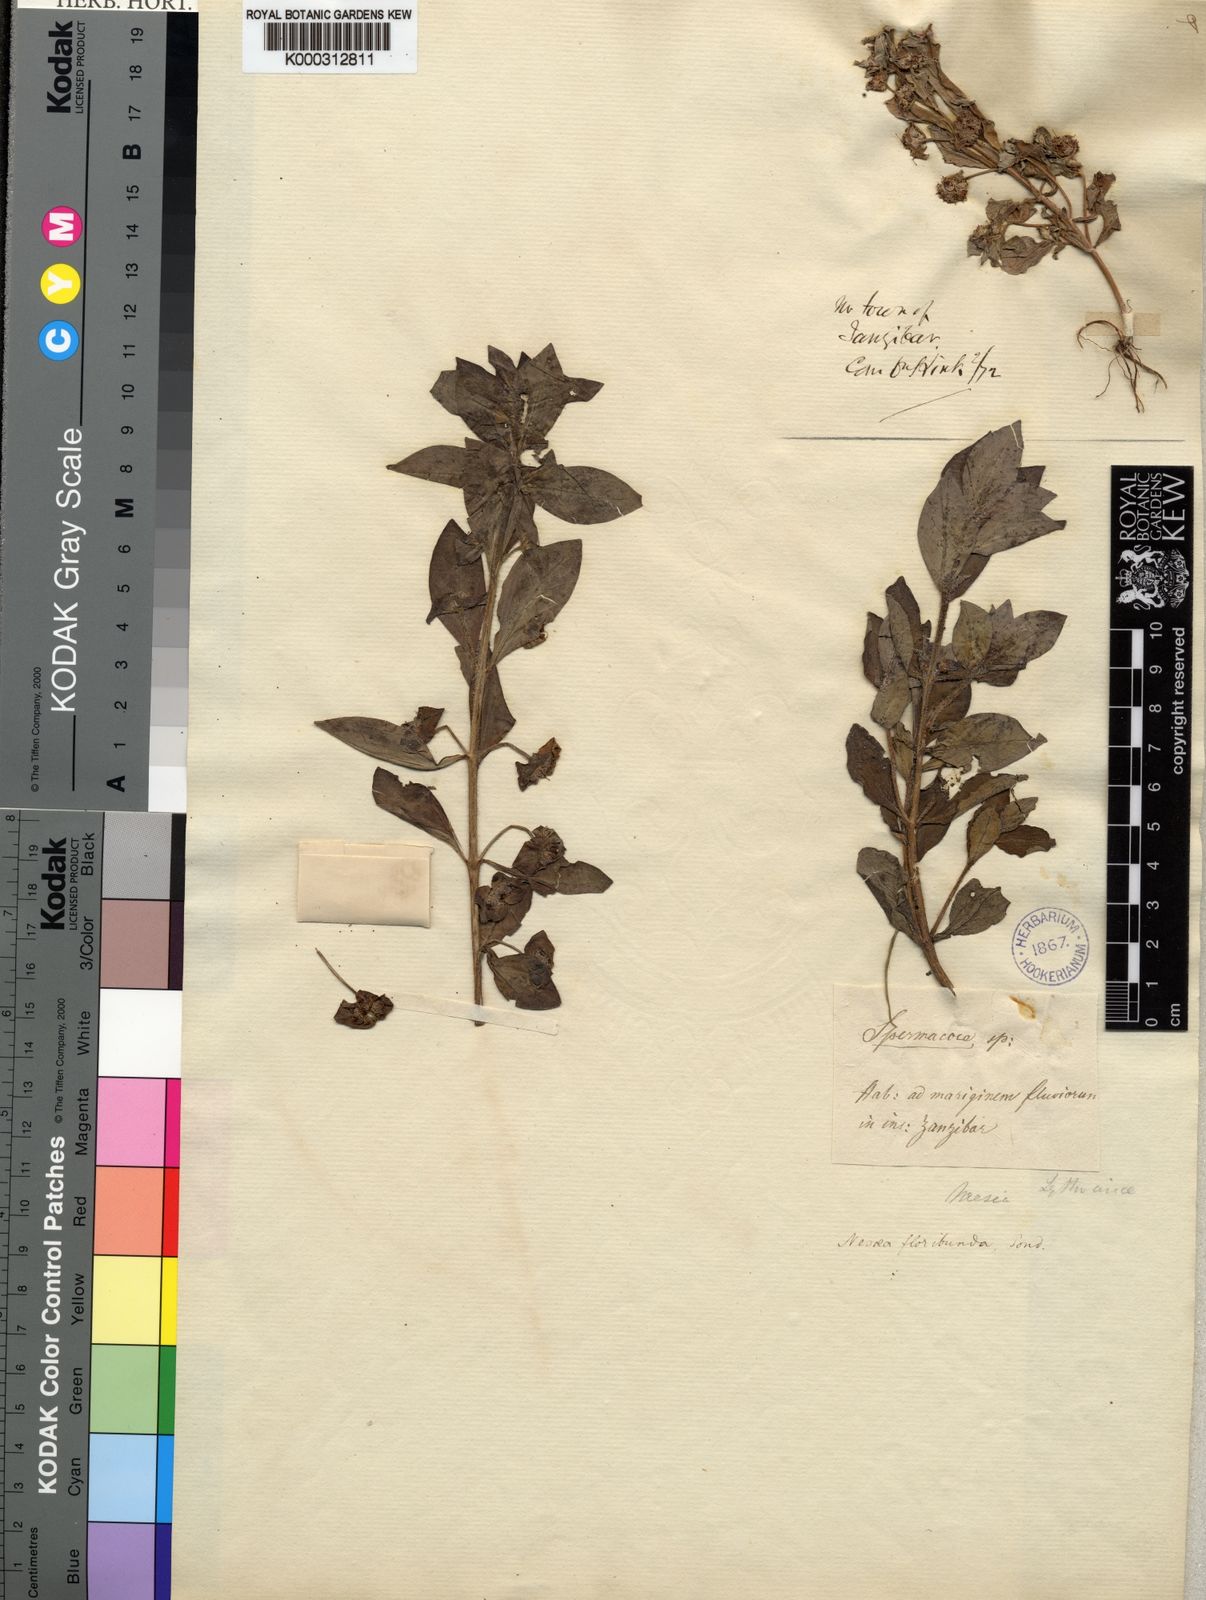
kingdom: Plantae
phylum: Tracheophyta
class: Magnoliopsida
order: Myrtales
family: Lythraceae
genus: Ammannia
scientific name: Ammannia radicans
